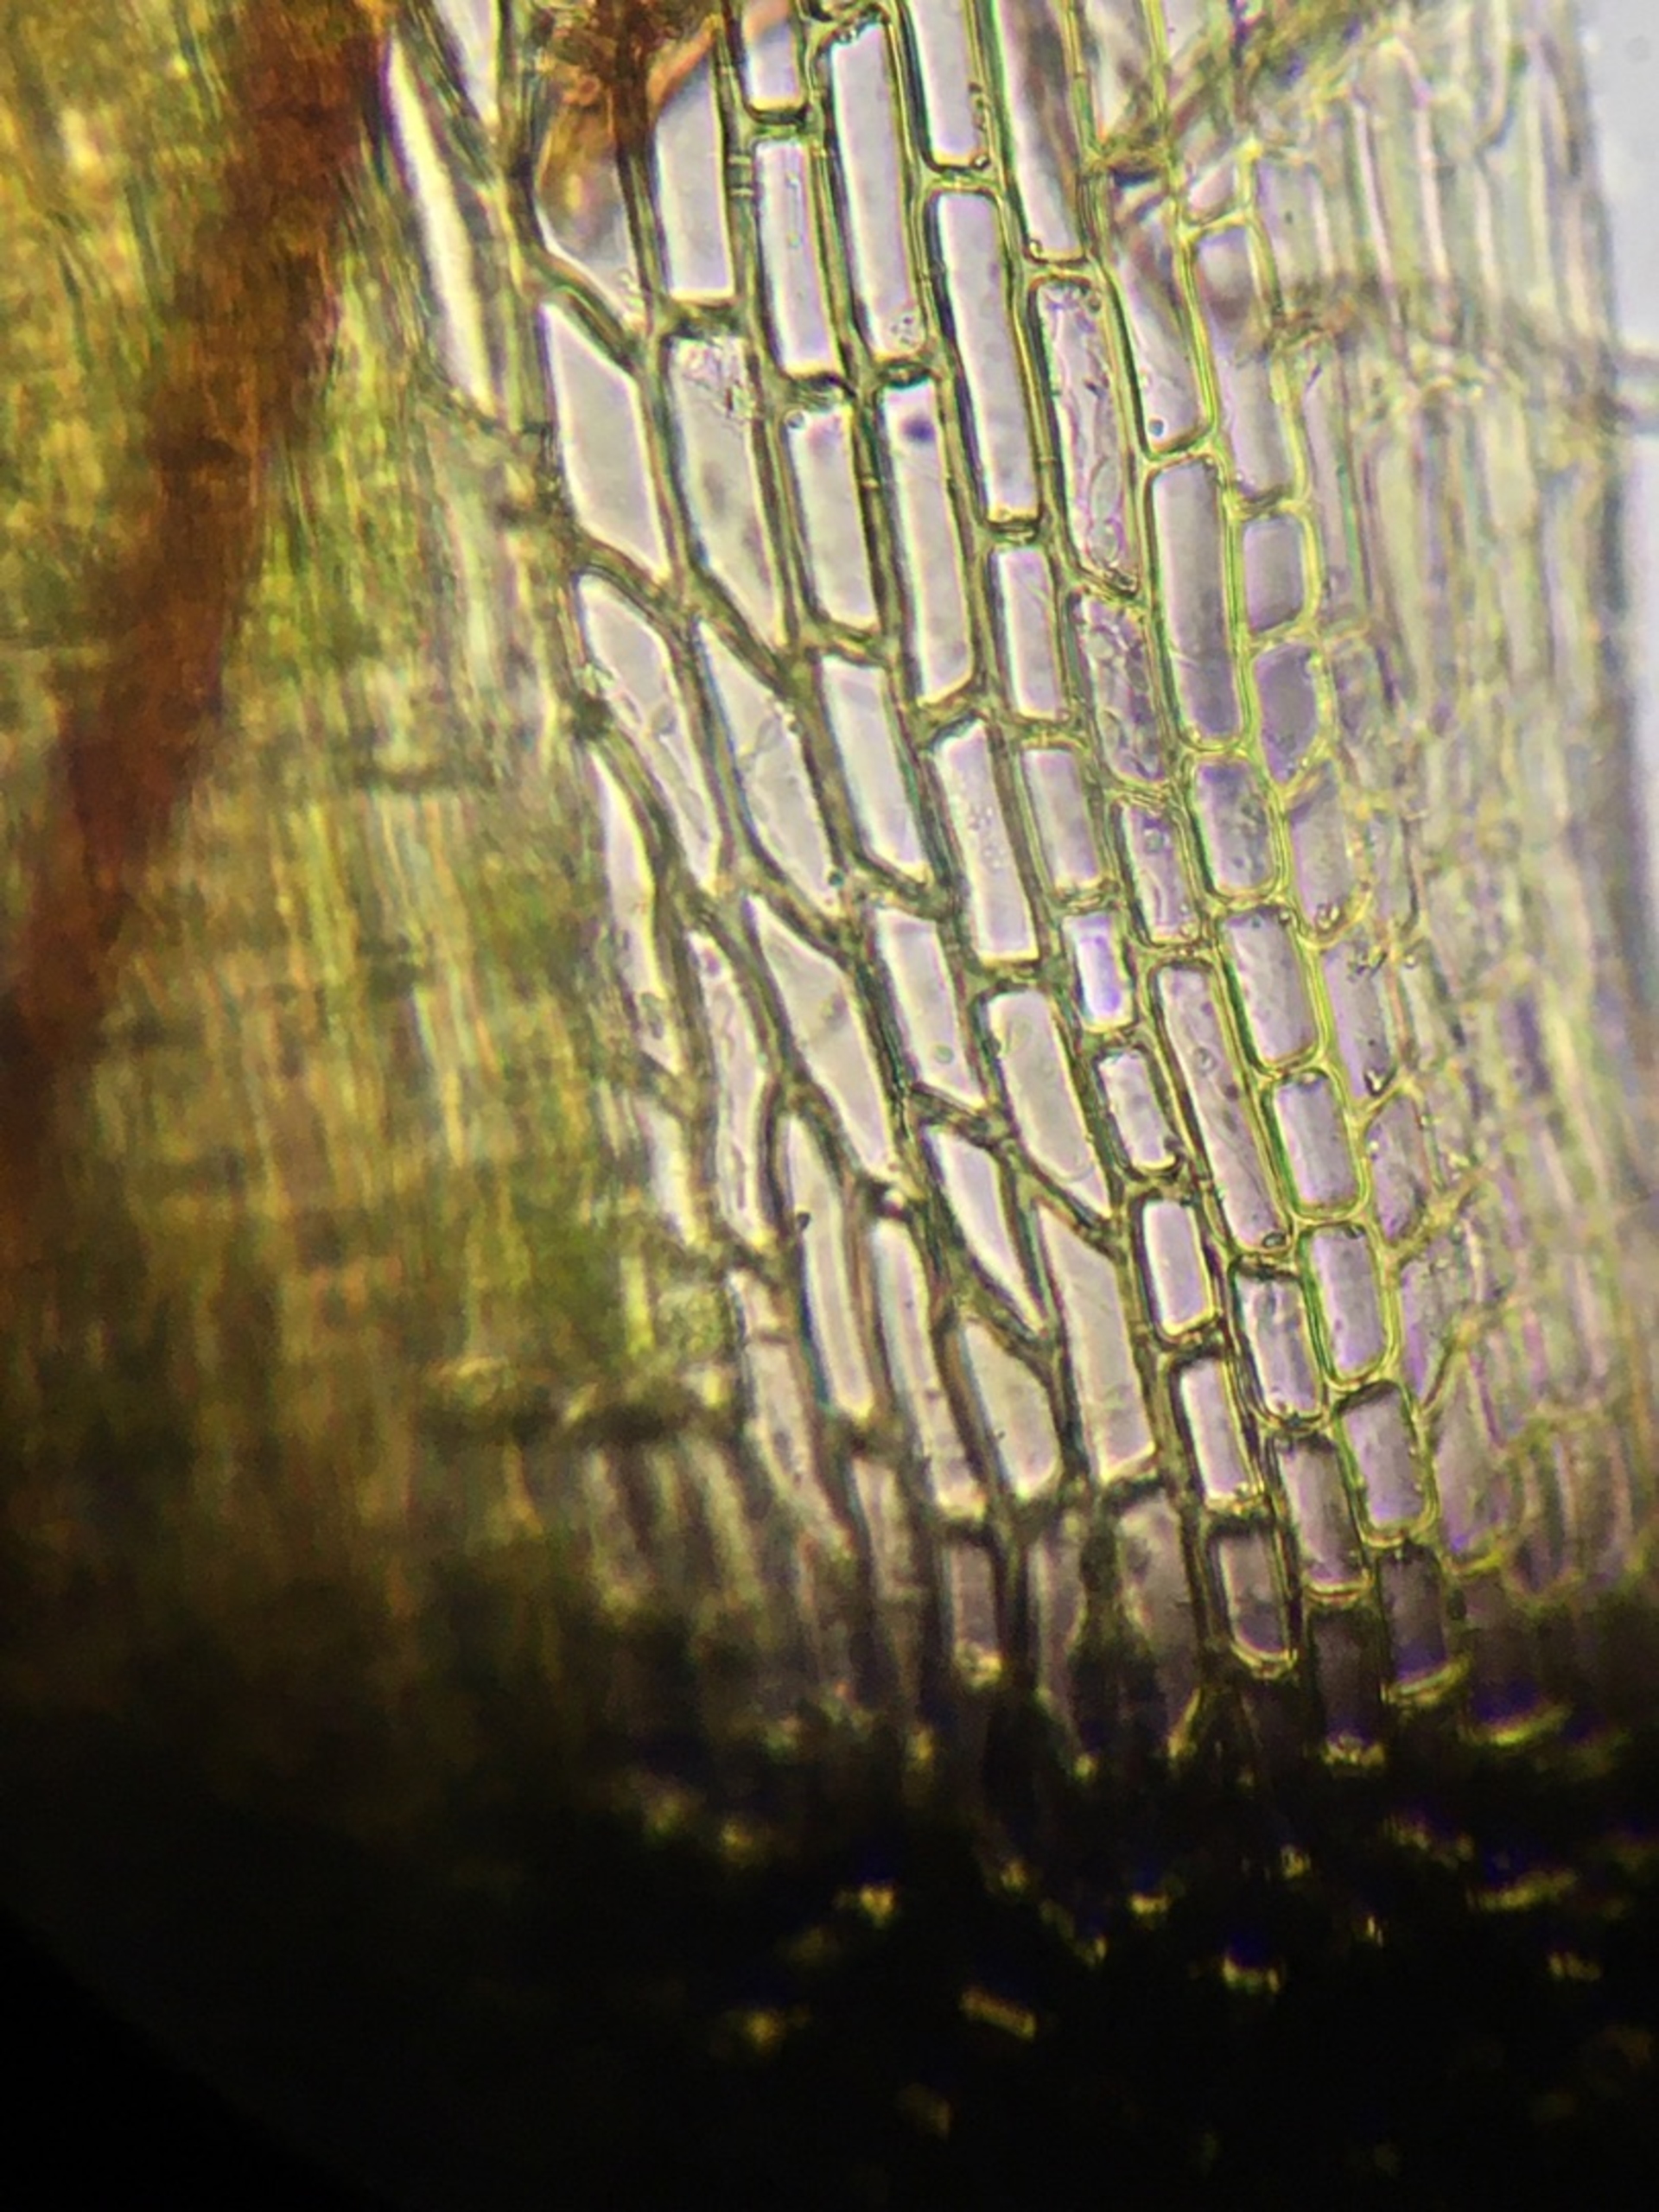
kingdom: Plantae
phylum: Bryophyta
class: Bryopsida
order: Dicranales
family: Leucobryaceae
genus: Campylopus
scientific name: Campylopus flexuosus
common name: Filtet bredribbe
